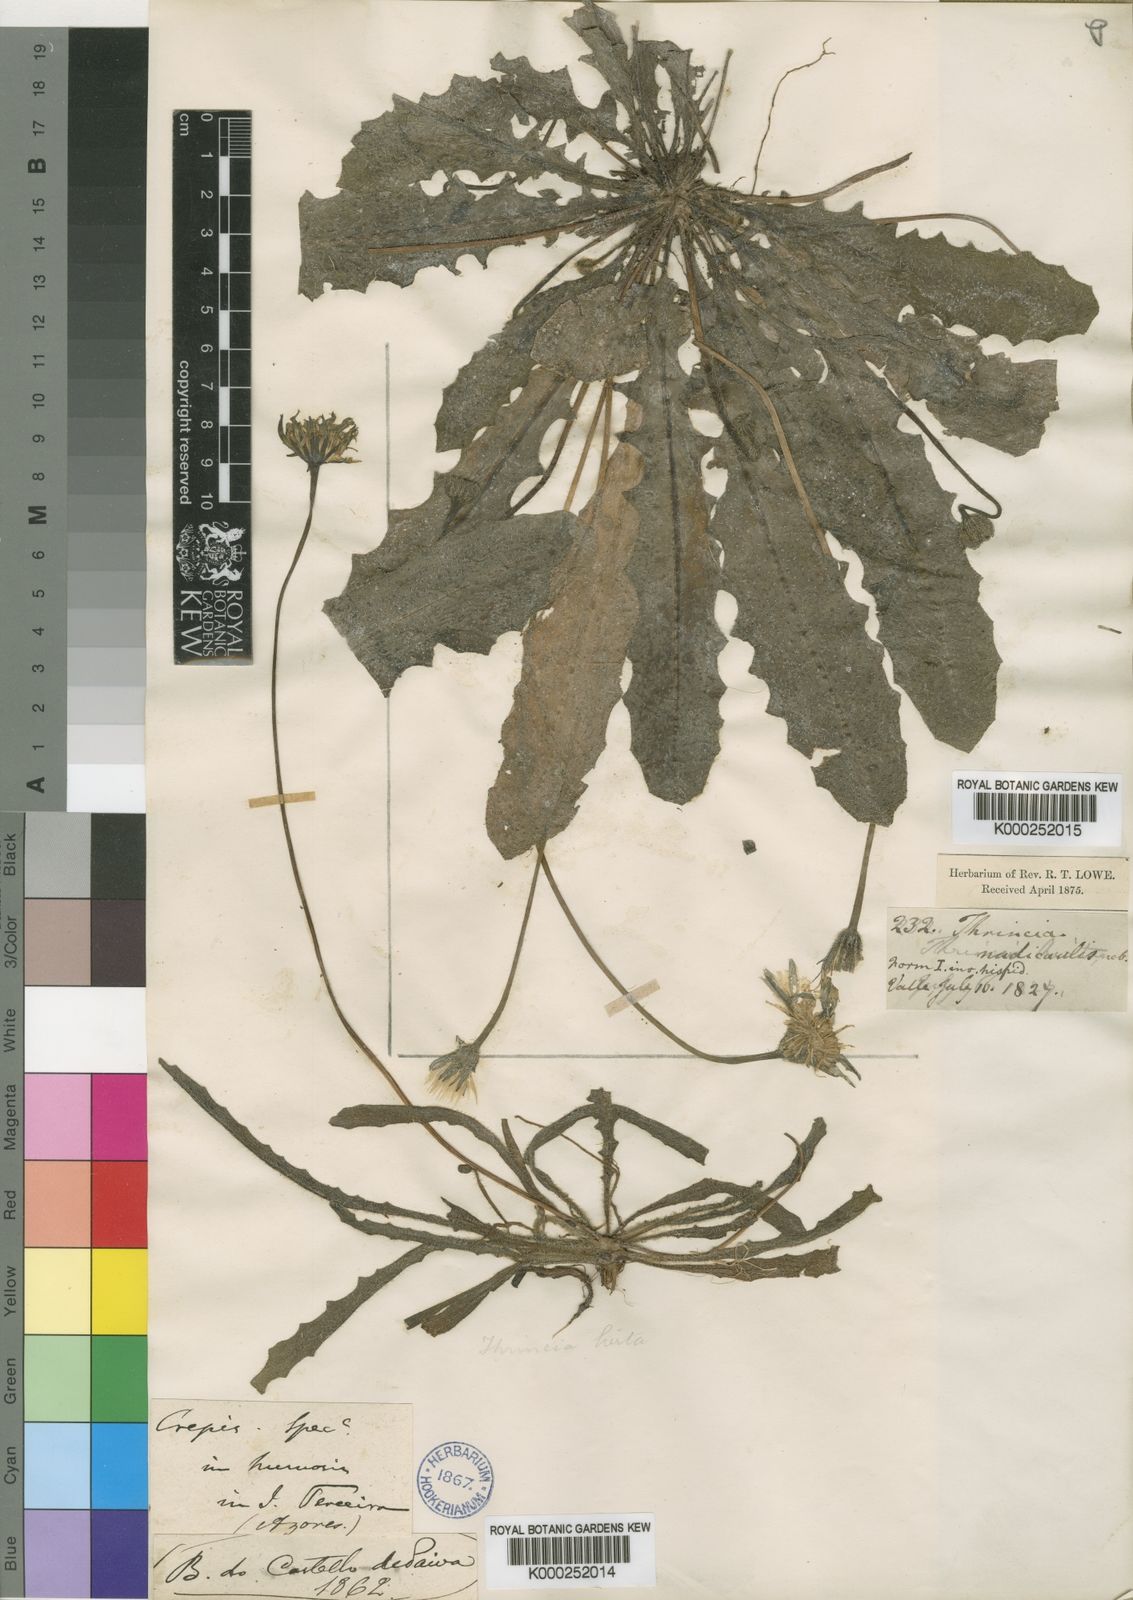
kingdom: Plantae
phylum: Tracheophyta
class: Magnoliopsida
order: Asterales
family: Asteraceae
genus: Leontodon
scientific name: Leontodon
